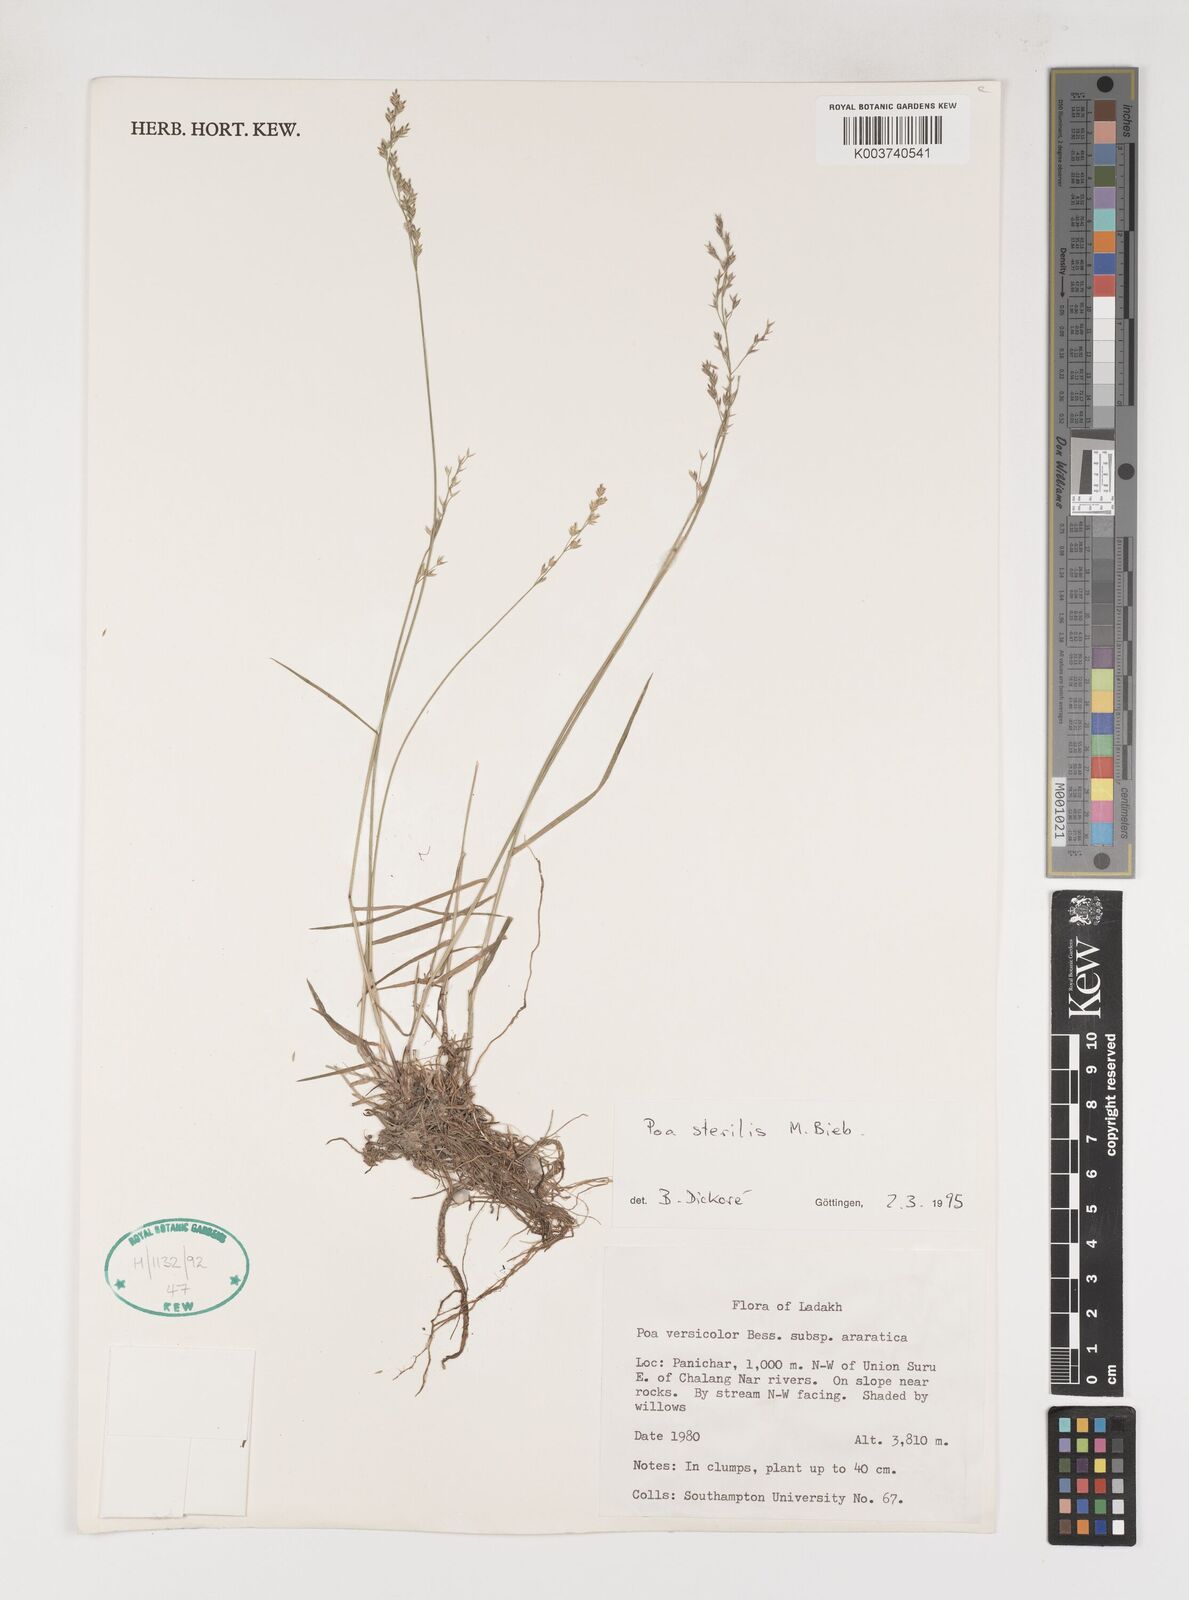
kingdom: Plantae
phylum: Tracheophyta
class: Liliopsida
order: Poales
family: Poaceae
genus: Poa
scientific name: Poa sterilis
